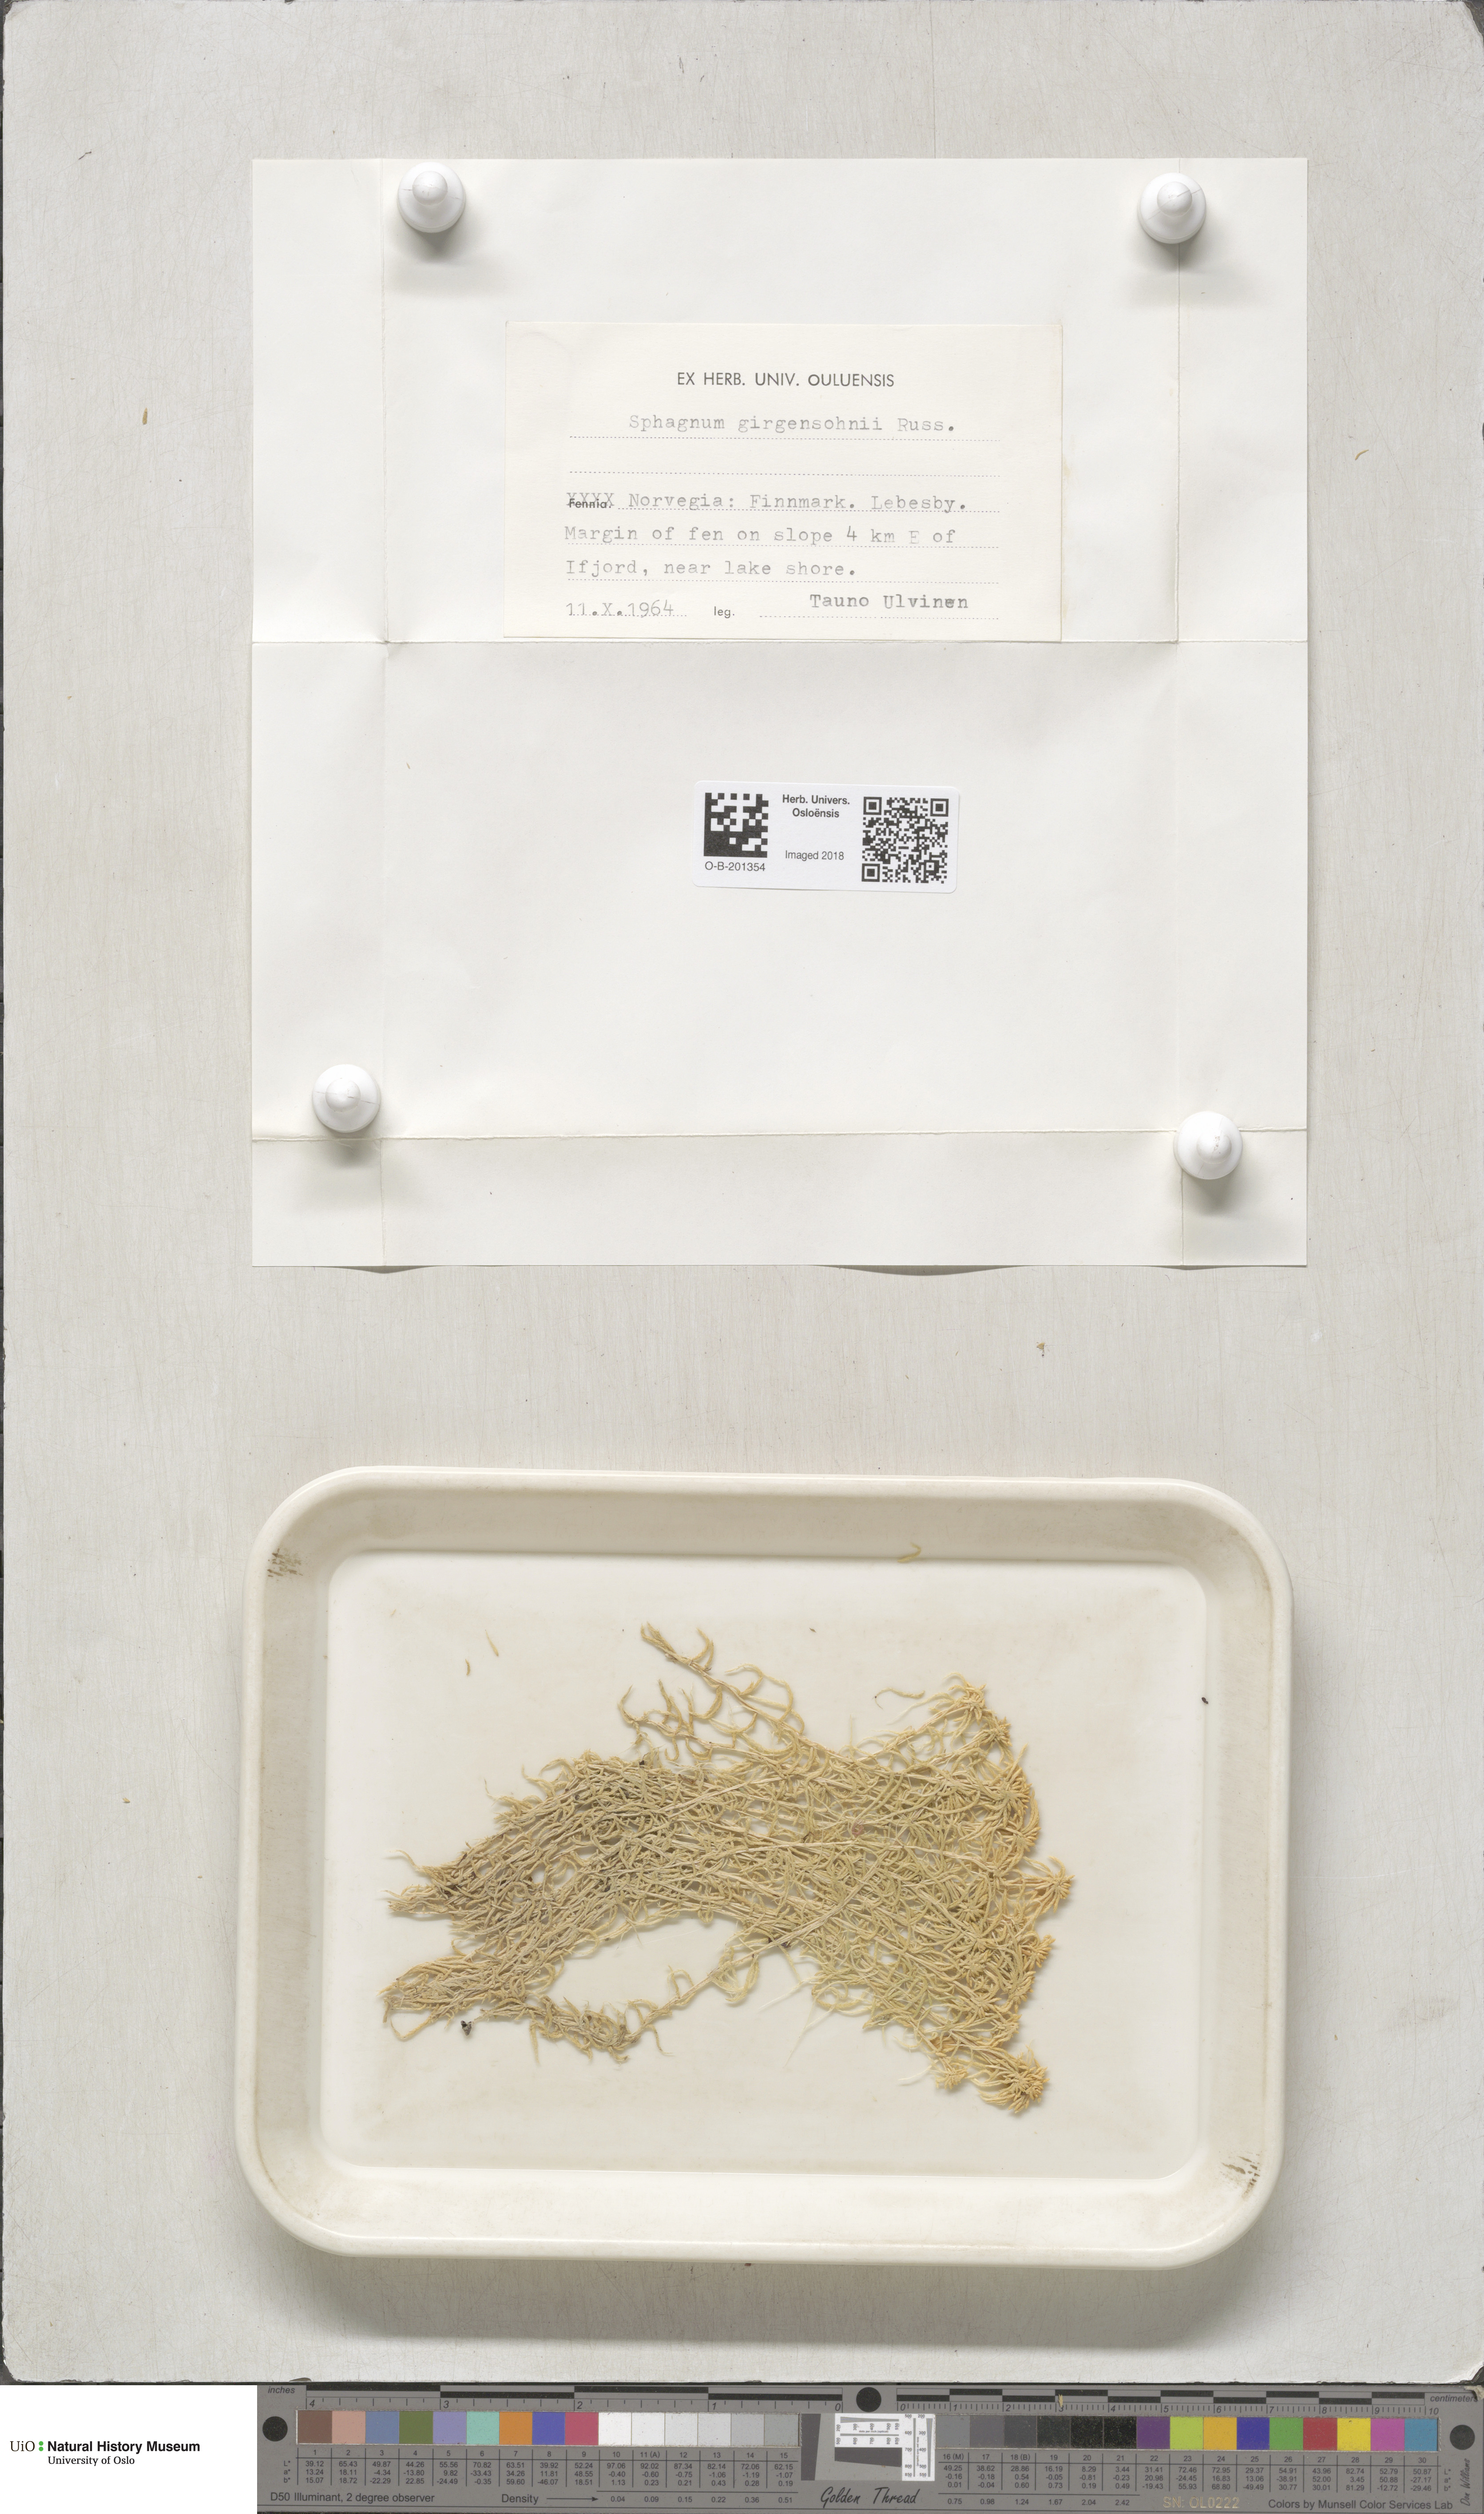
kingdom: Plantae
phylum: Bryophyta
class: Sphagnopsida
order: Sphagnales
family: Sphagnaceae
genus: Sphagnum
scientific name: Sphagnum girgensohnii
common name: Girgensohn's peat moss
